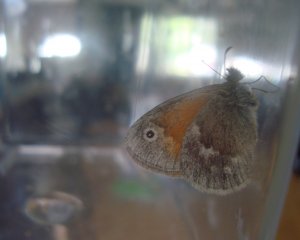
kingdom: Animalia
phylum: Arthropoda
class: Insecta
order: Lepidoptera
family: Nymphalidae
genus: Coenonympha
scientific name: Coenonympha tullia
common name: Large Heath
